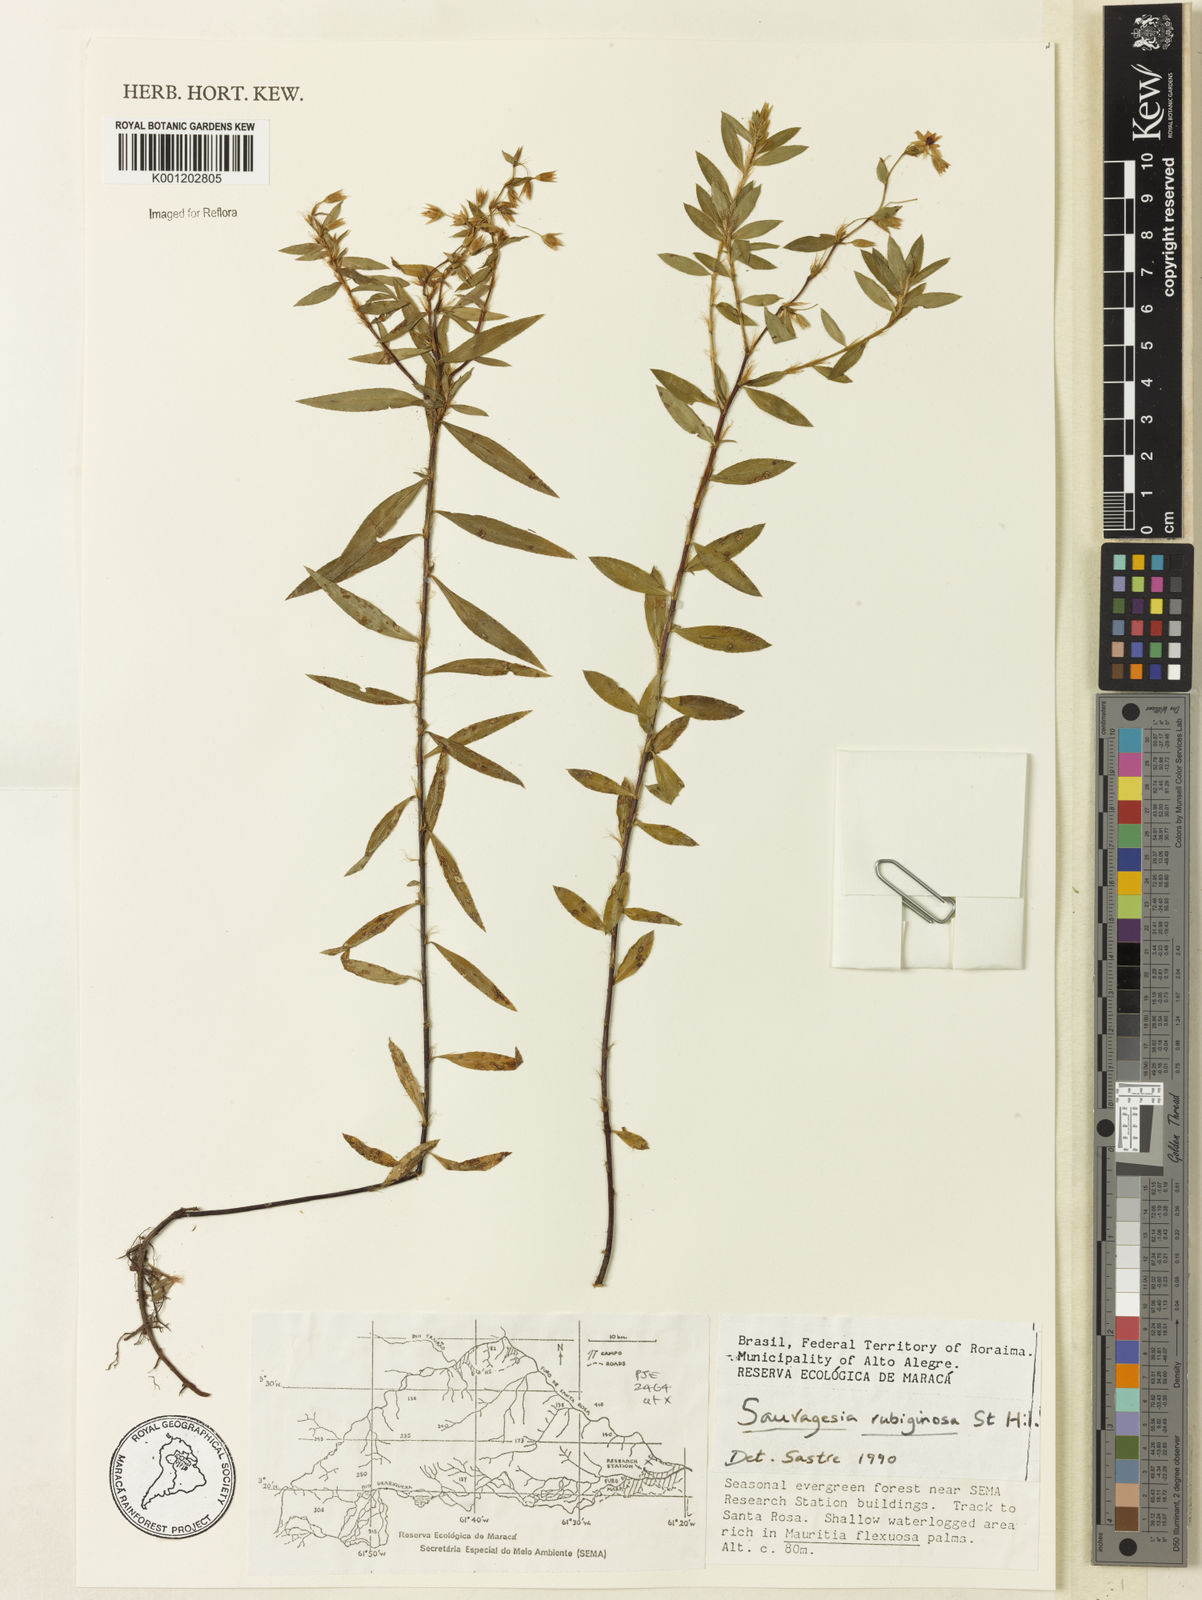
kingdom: Plantae
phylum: Tracheophyta
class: Magnoliopsida
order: Malpighiales
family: Ochnaceae
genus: Sauvagesia
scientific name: Sauvagesia rubiginosa
